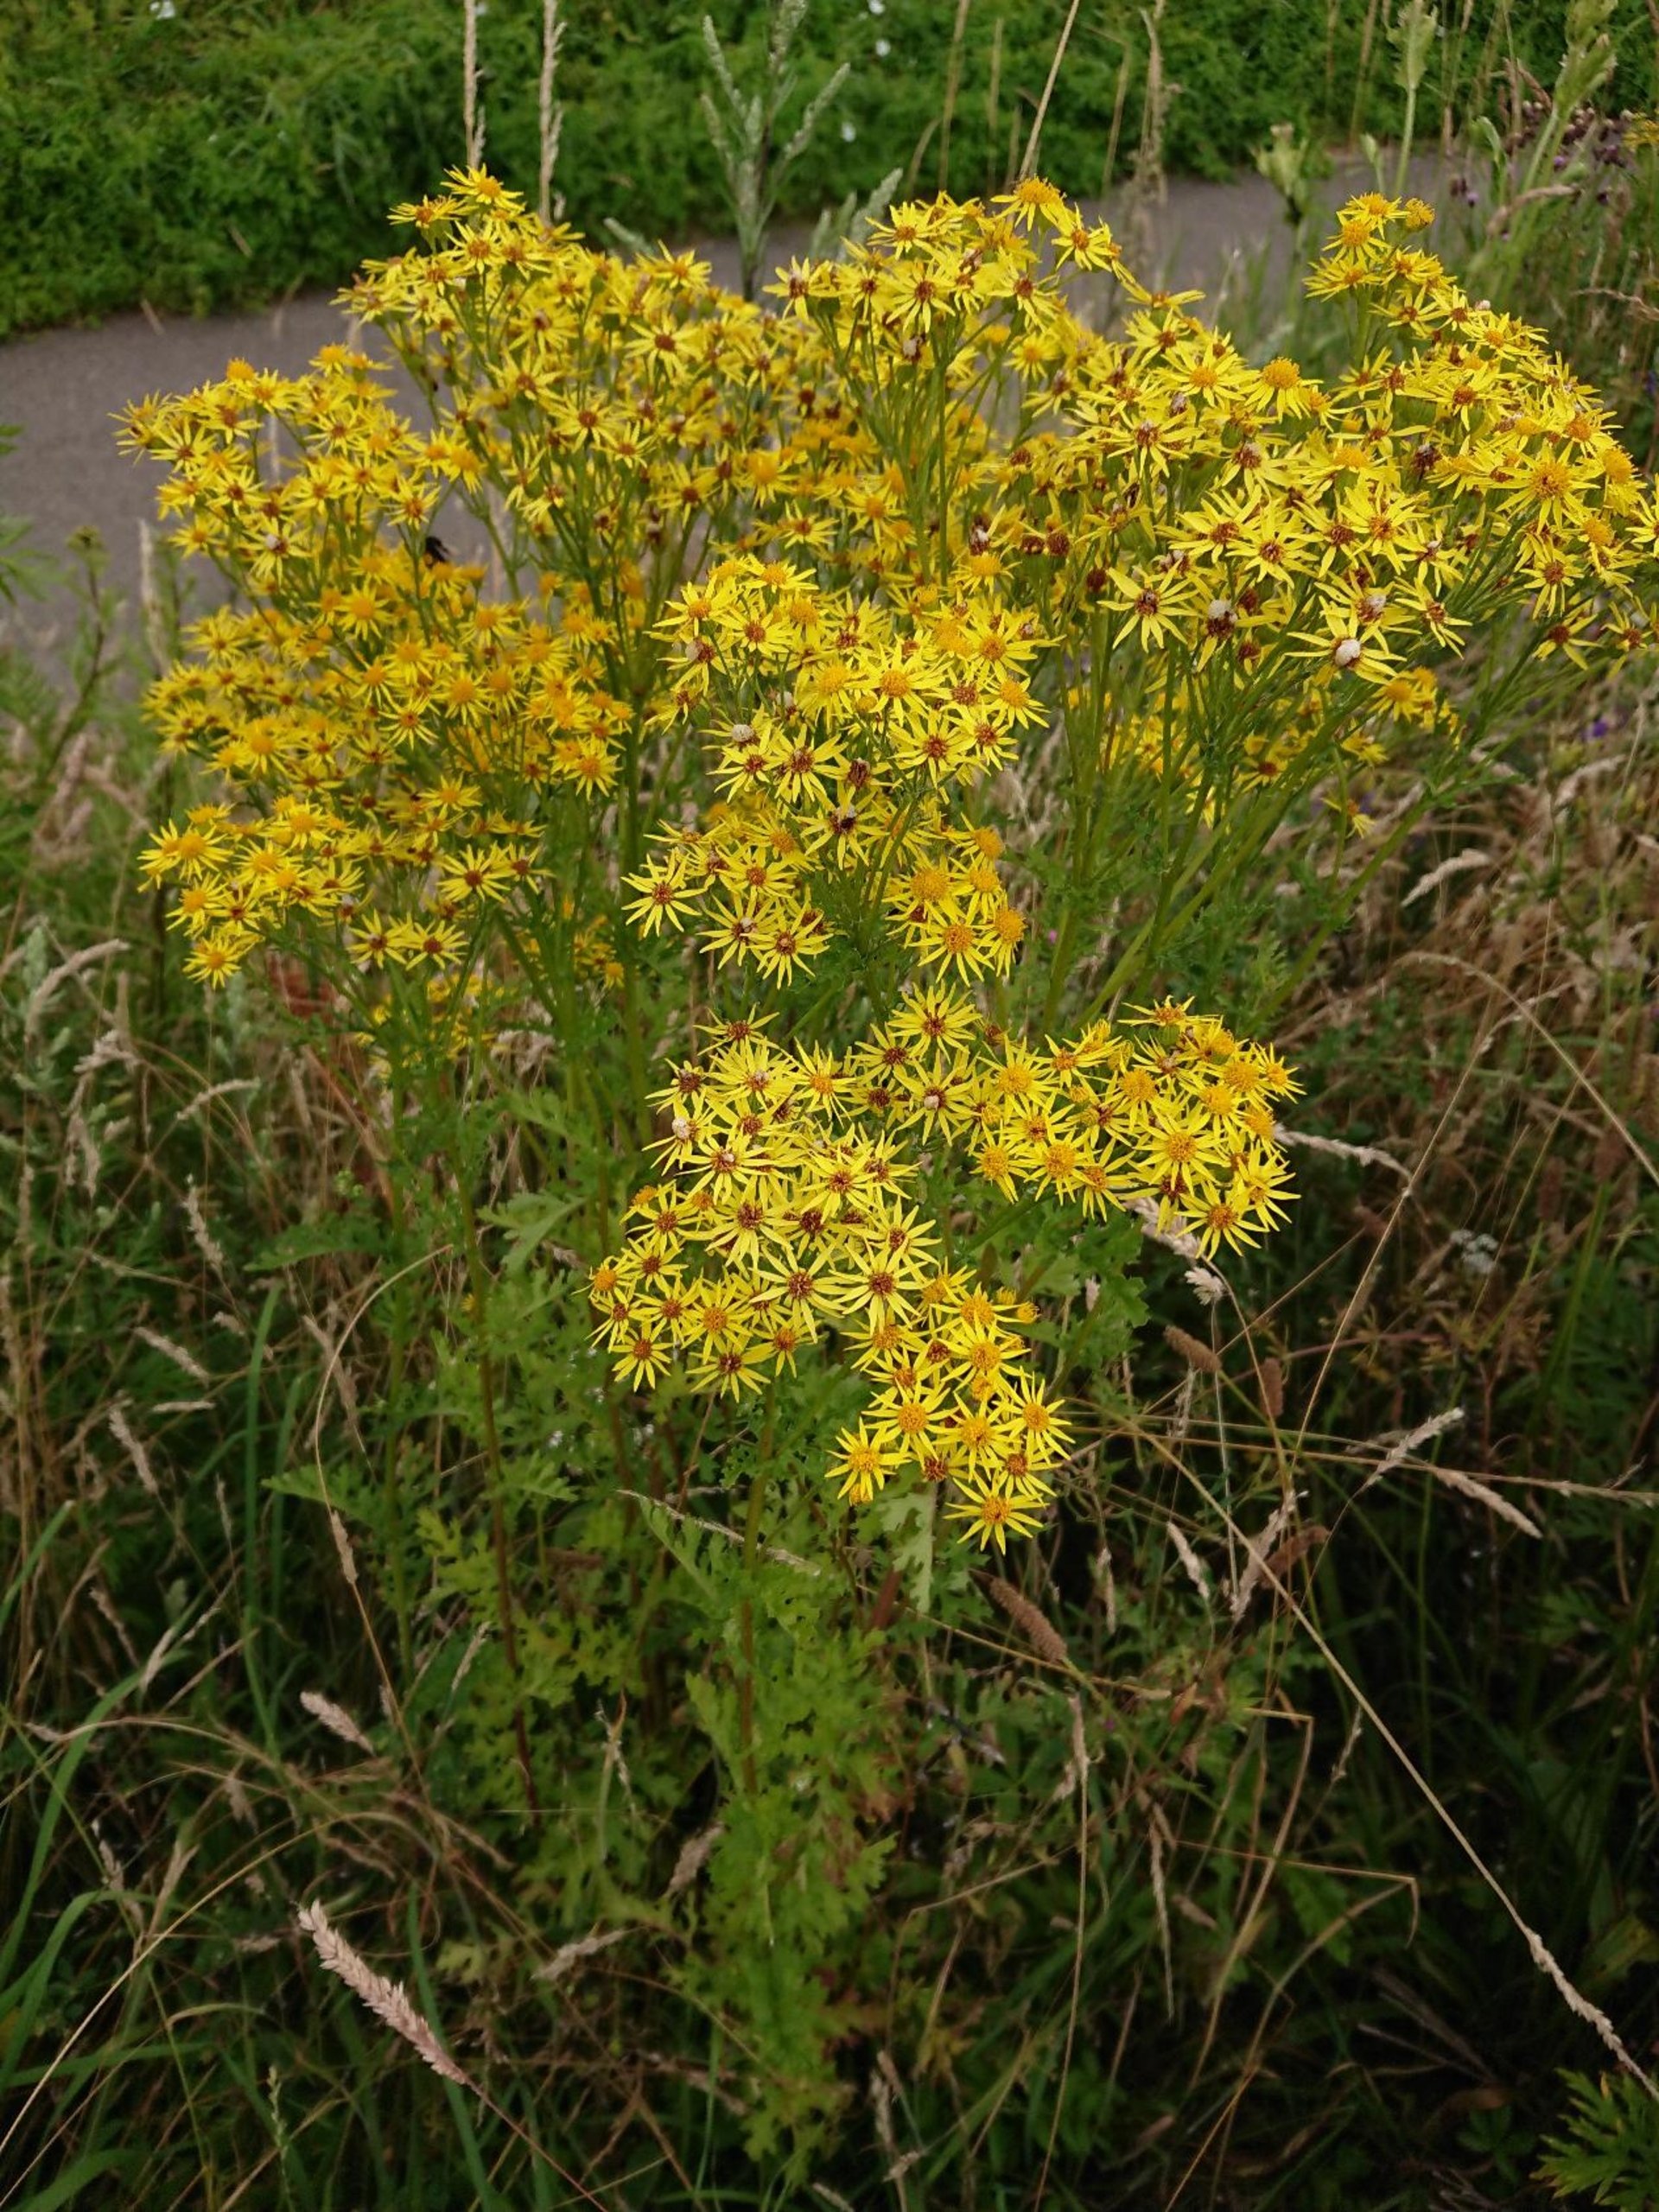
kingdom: Plantae
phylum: Tracheophyta
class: Magnoliopsida
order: Asterales
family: Asteraceae
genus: Jacobaea
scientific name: Jacobaea vulgaris
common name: Eng-brandbæger
